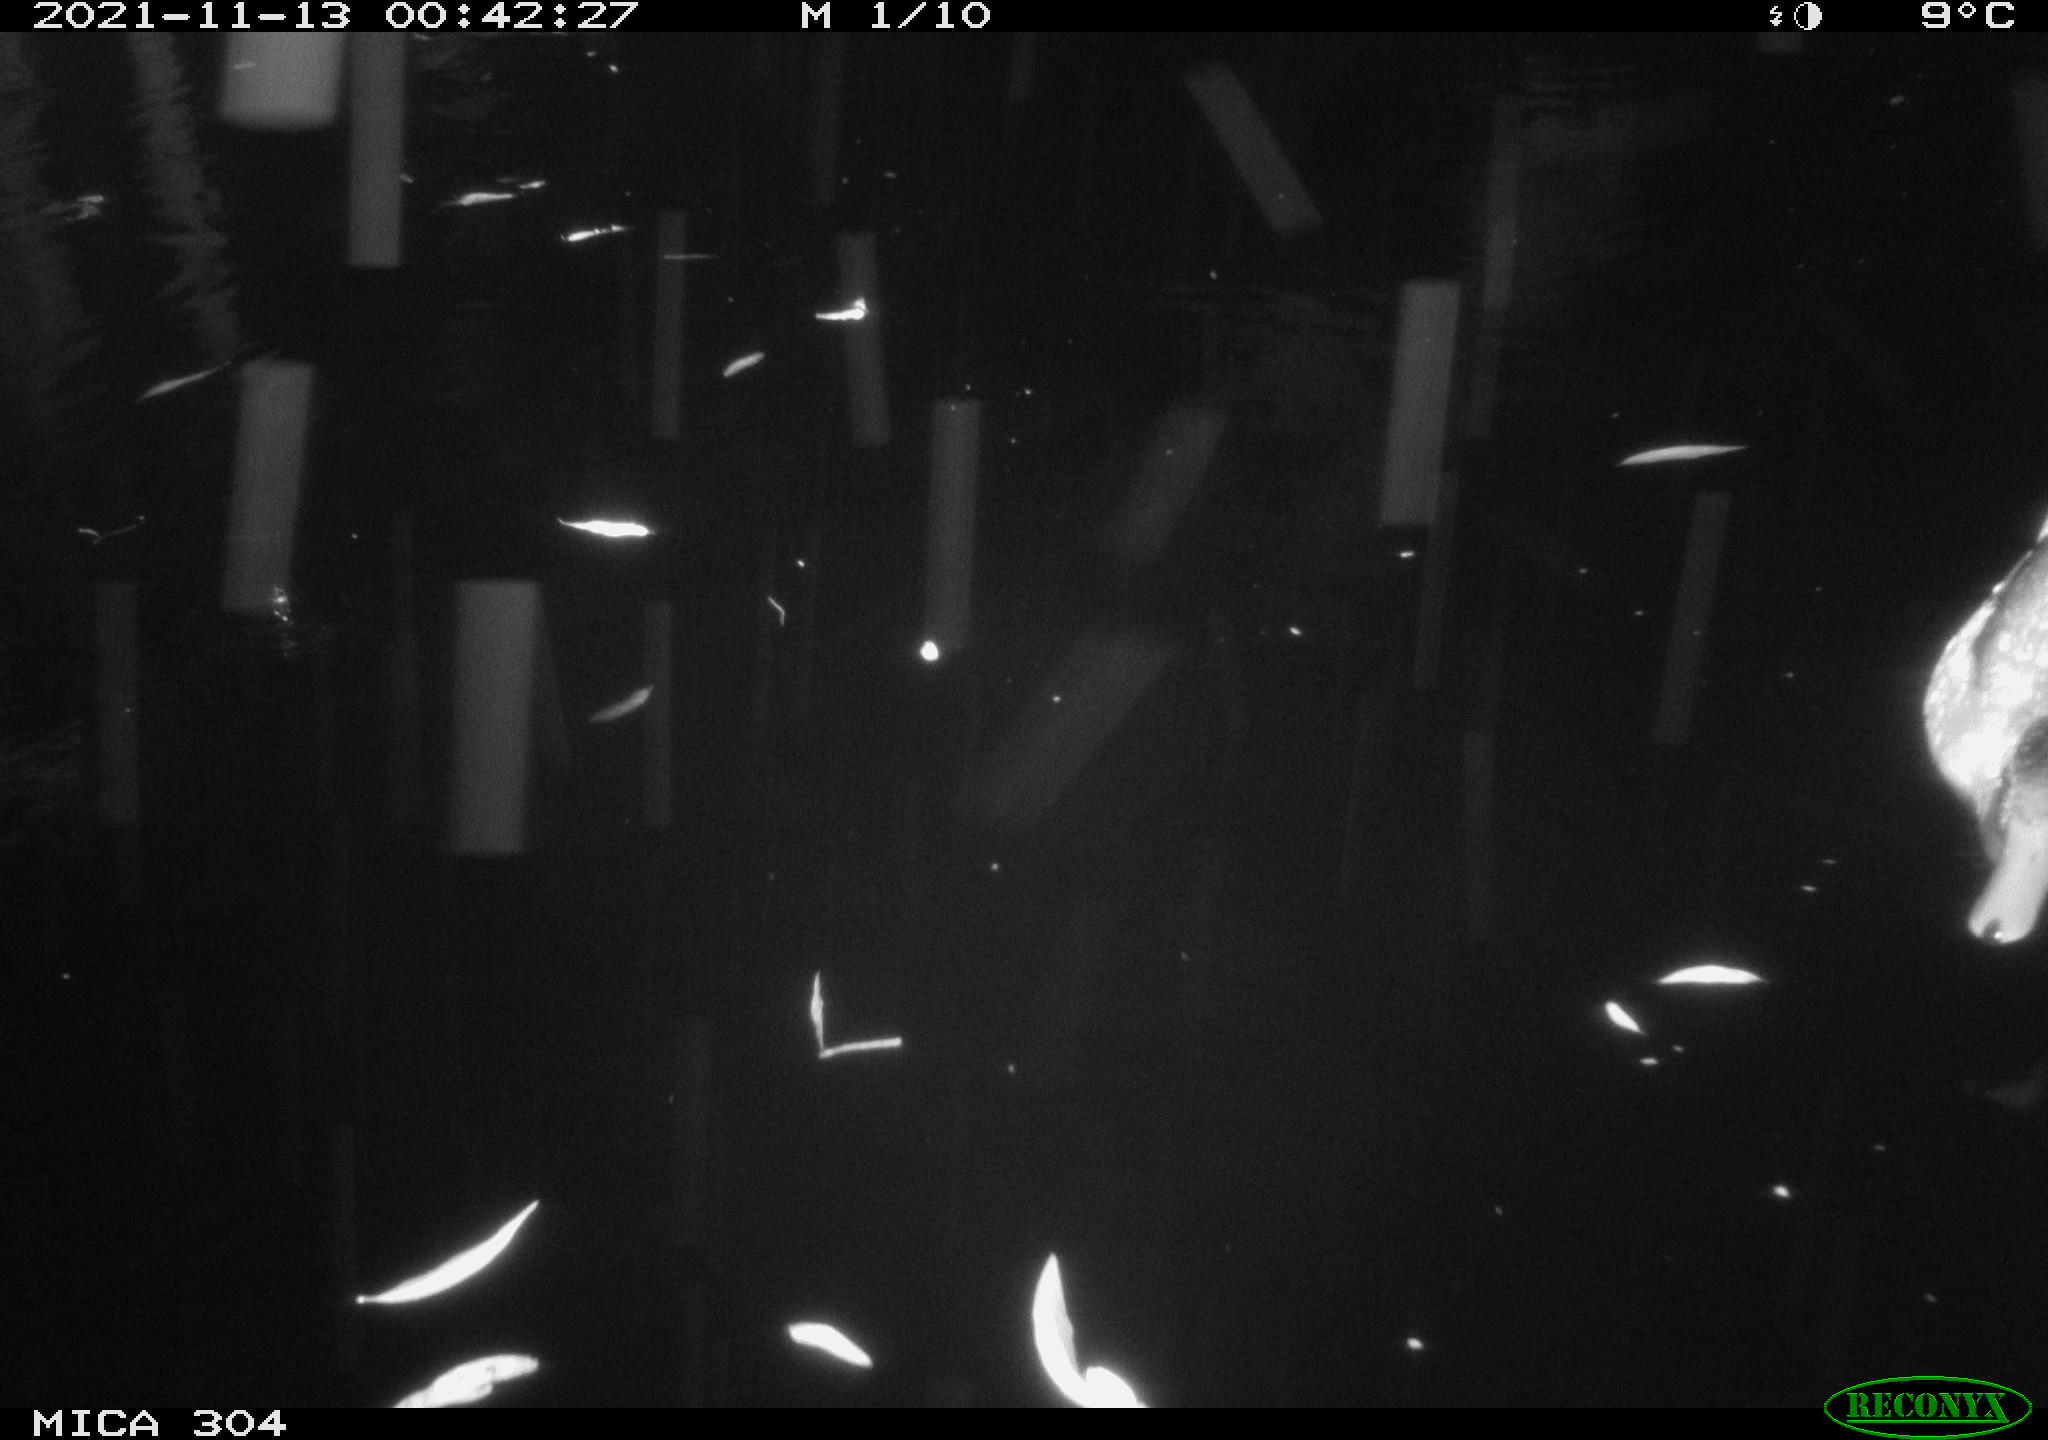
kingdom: Animalia
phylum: Chordata
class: Aves
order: Anseriformes
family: Anatidae
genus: Anas
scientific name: Anas platyrhynchos
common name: Mallard
